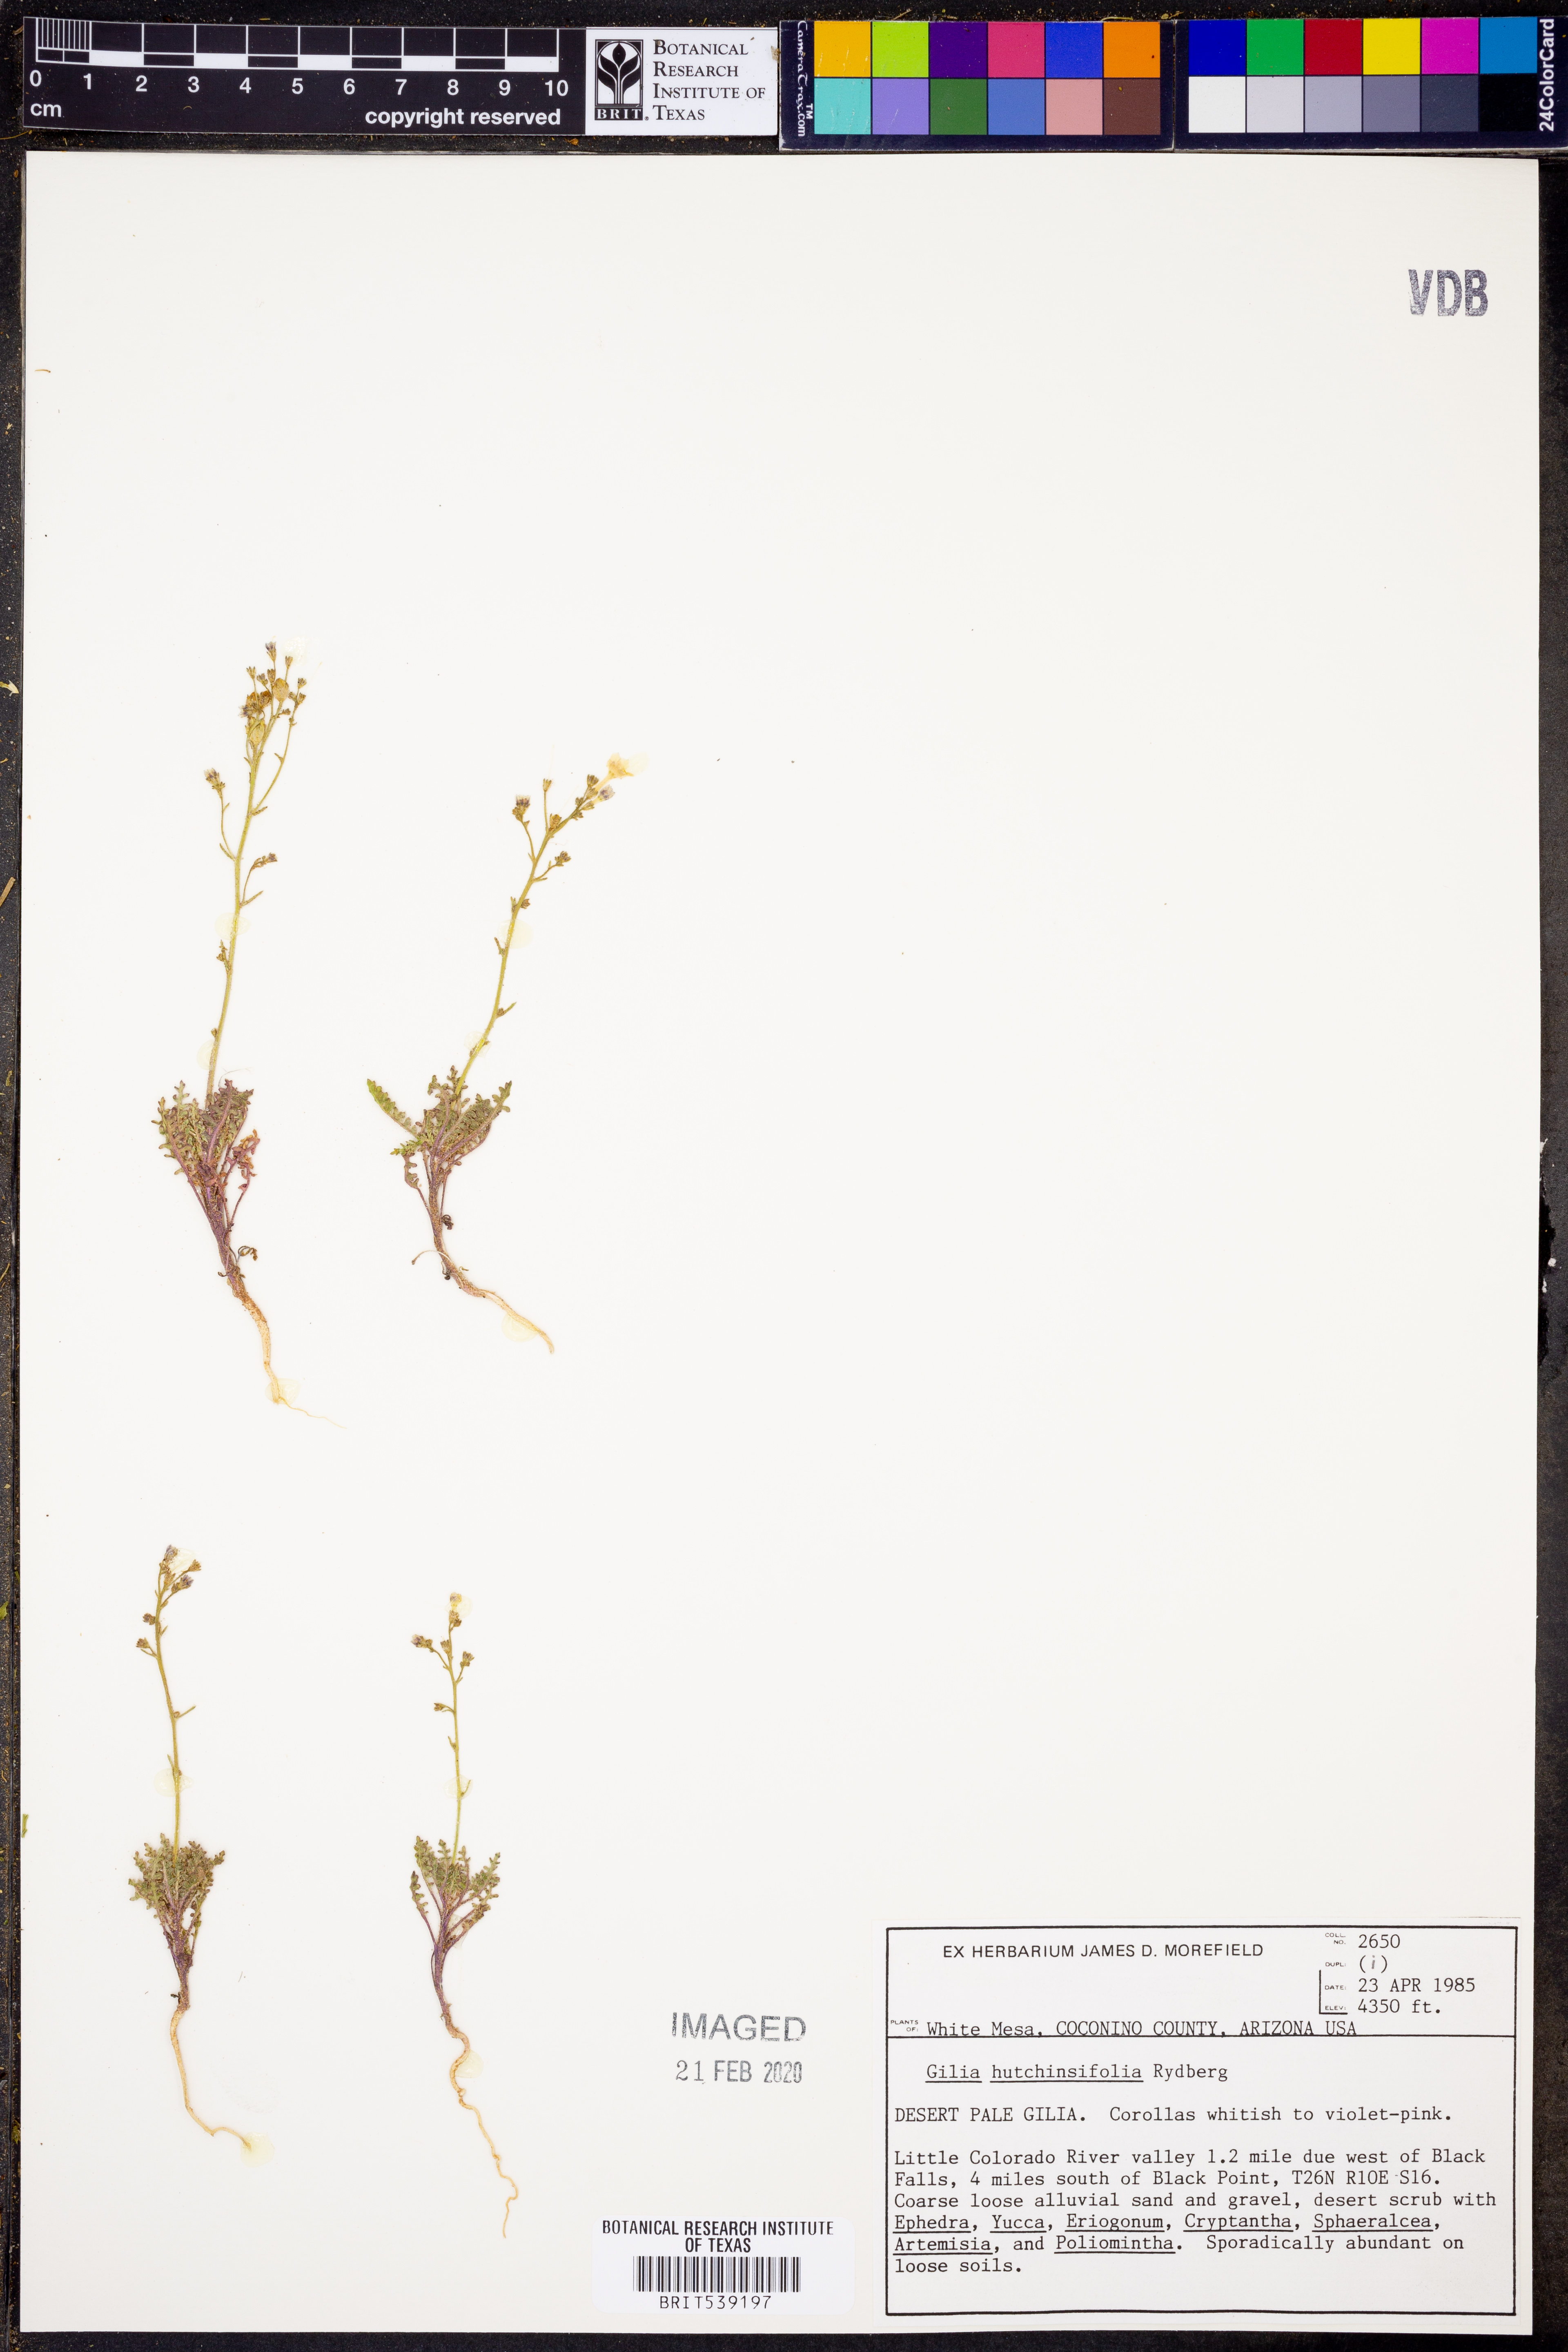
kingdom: Plantae
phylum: Tracheophyta
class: Magnoliopsida
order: Ericales
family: Polemoniaceae
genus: Aliciella
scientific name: Aliciella hutchinsifolia
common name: Desert pale gilia
